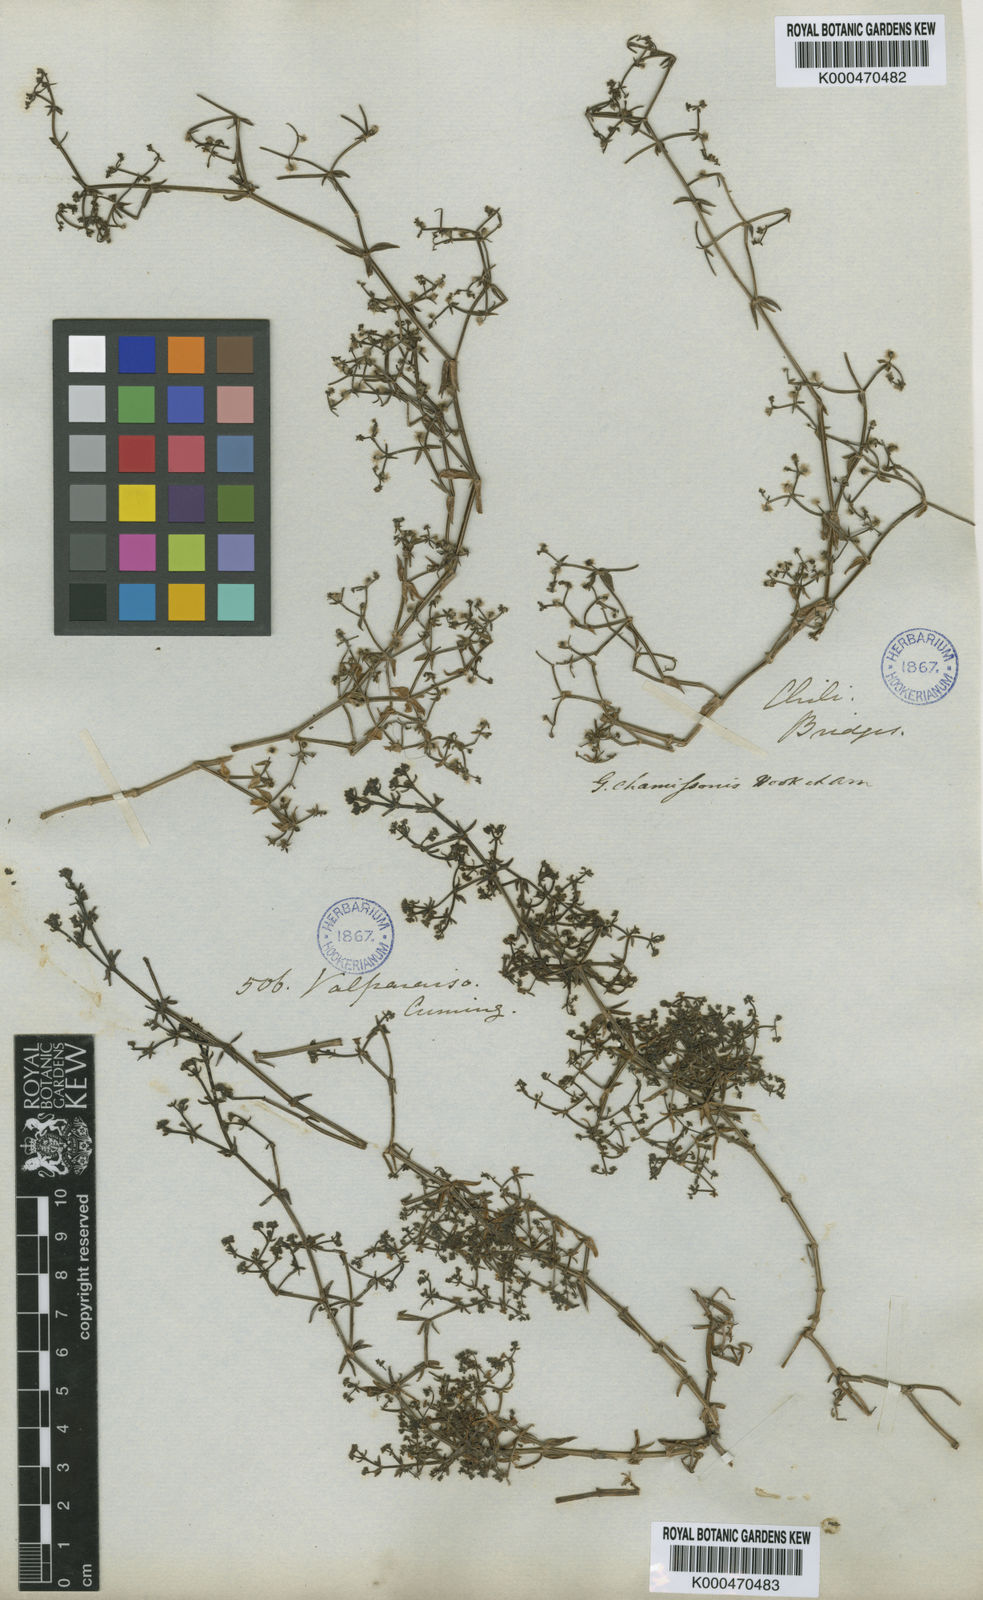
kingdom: Plantae
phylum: Tracheophyta
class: Magnoliopsida
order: Gentianales
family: Rubiaceae
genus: Galium
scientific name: Galium trichocarpum
